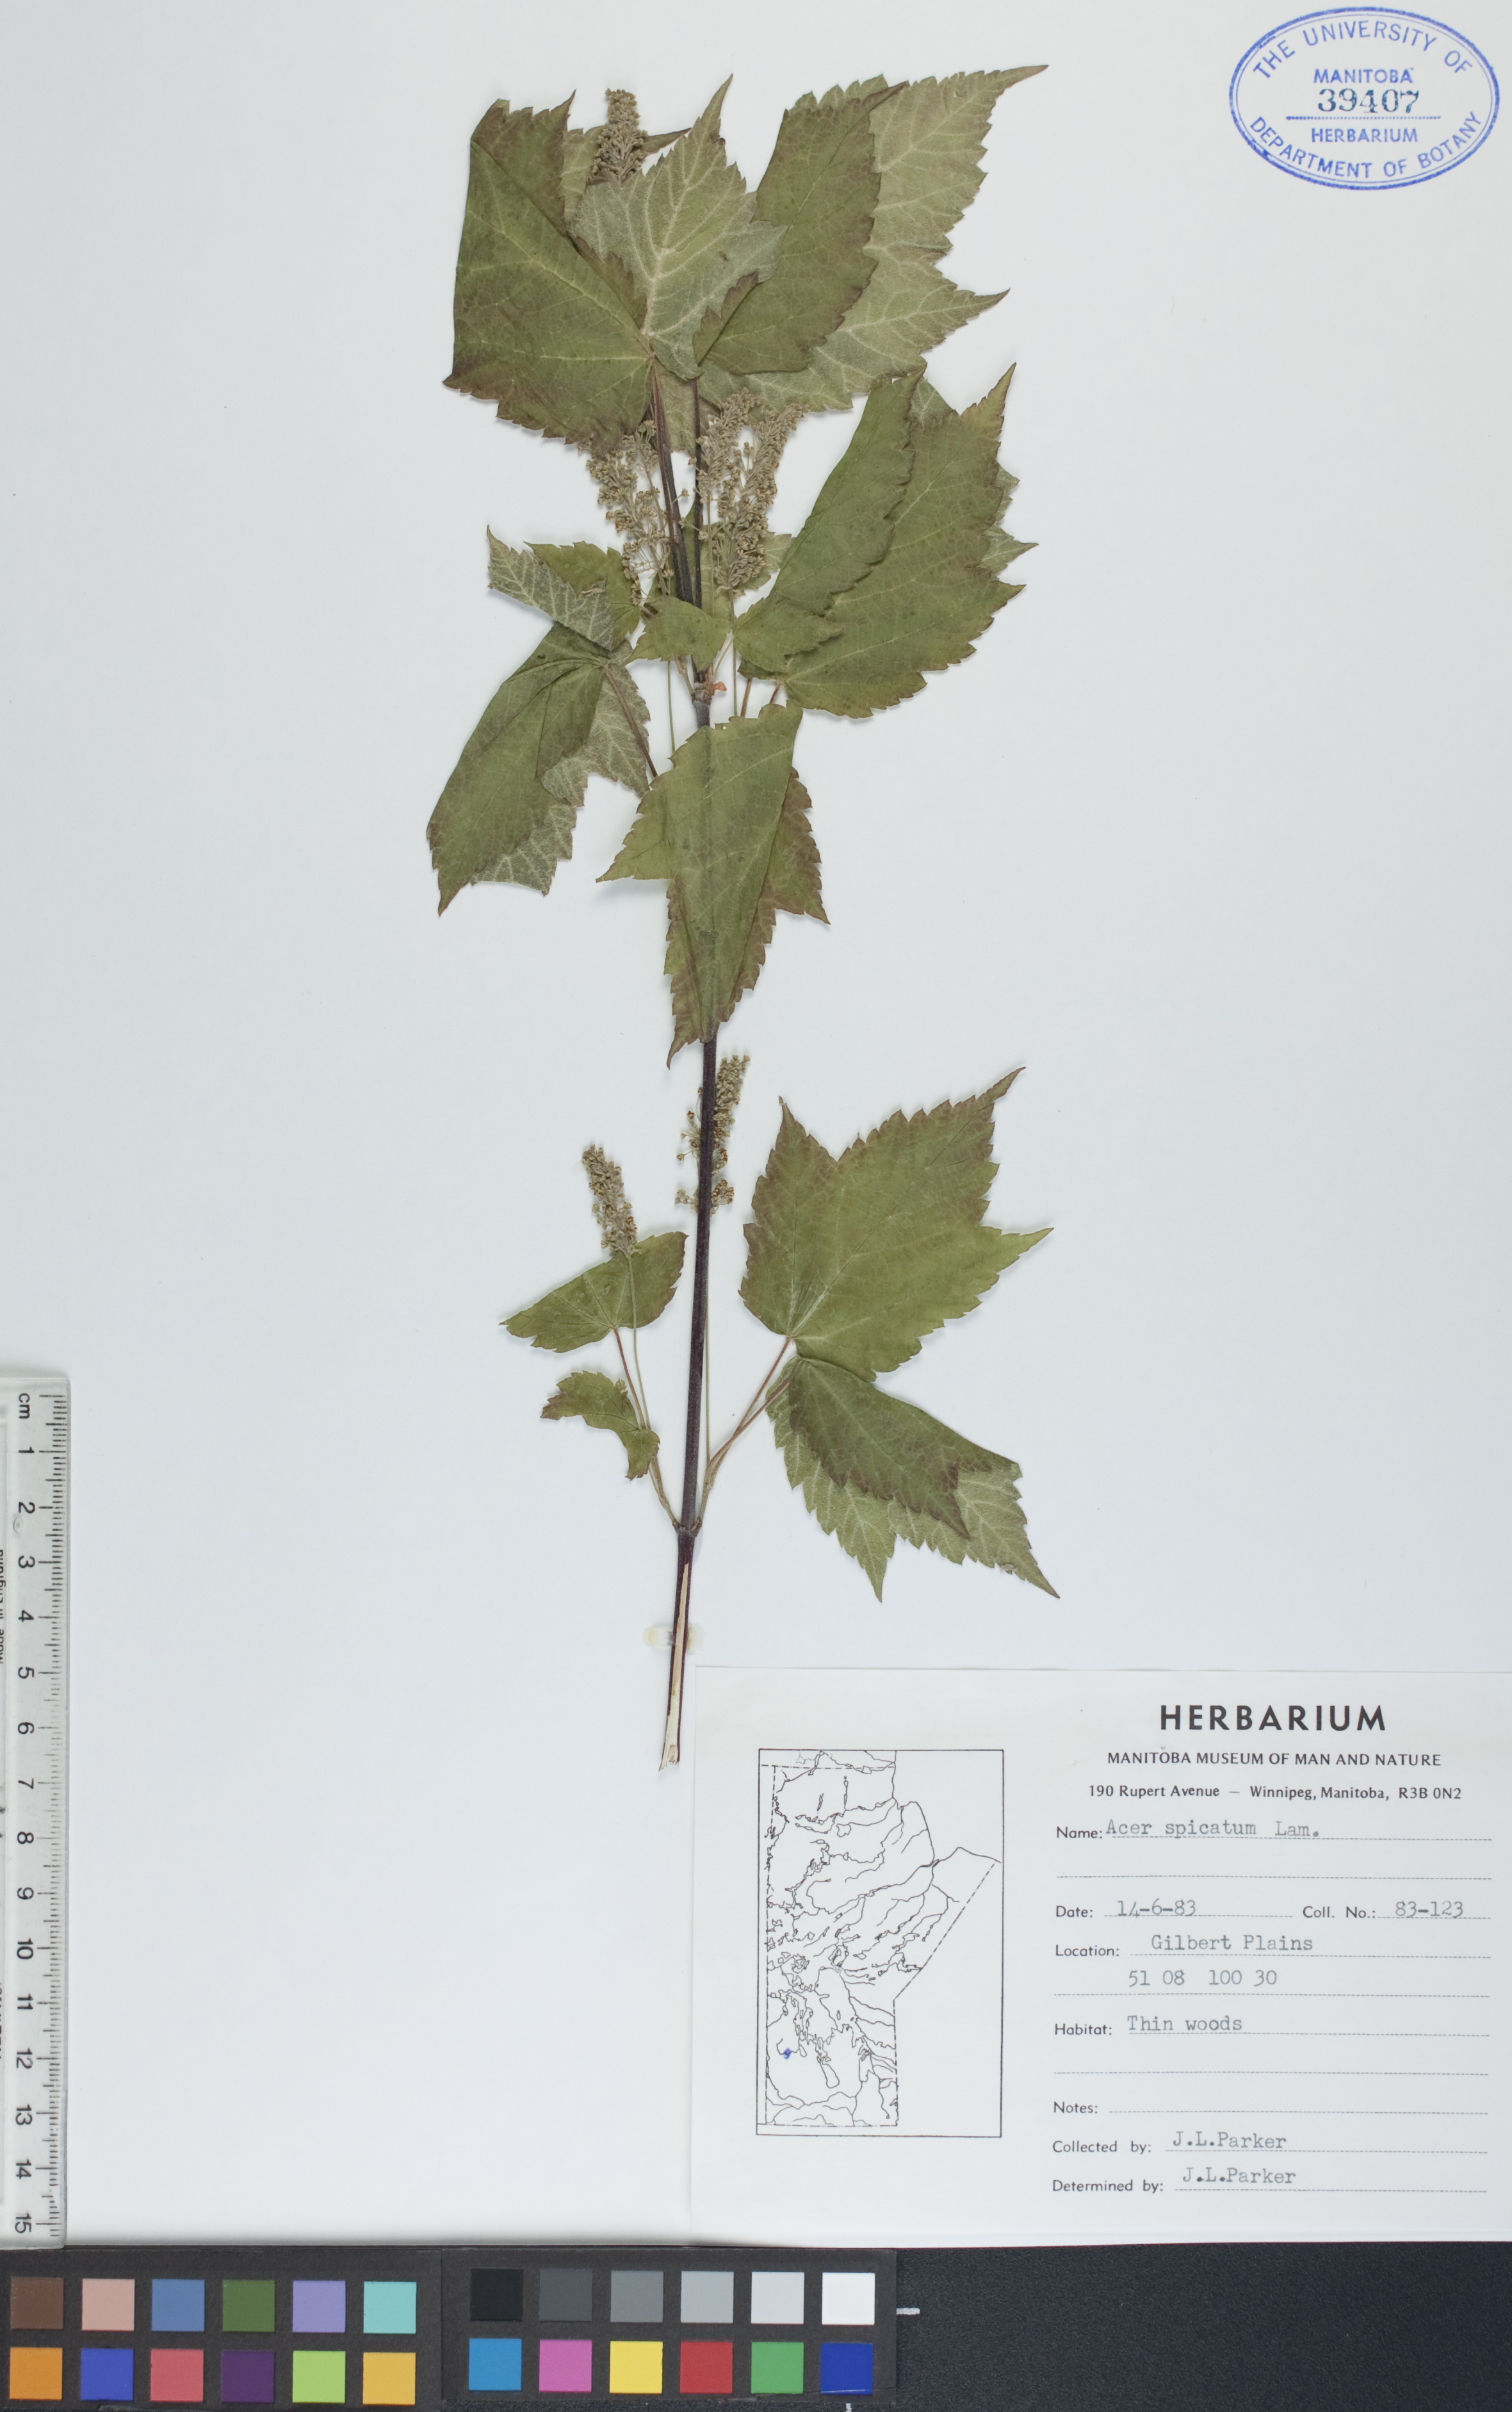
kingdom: Plantae
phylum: Tracheophyta
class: Magnoliopsida
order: Sapindales
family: Sapindaceae
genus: Acer
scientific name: Acer spicatum
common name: Mountain maple
